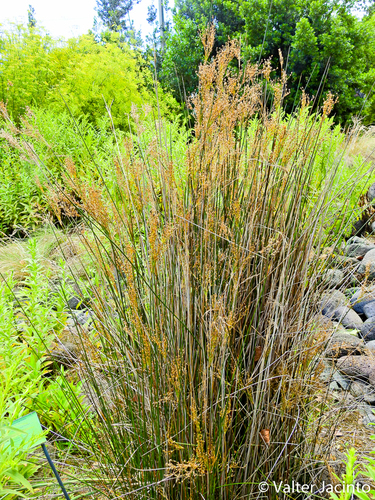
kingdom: Plantae
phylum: Tracheophyta
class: Liliopsida
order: Poales
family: Juncaceae
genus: Juncus
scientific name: Juncus maritimus
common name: Sea rush
